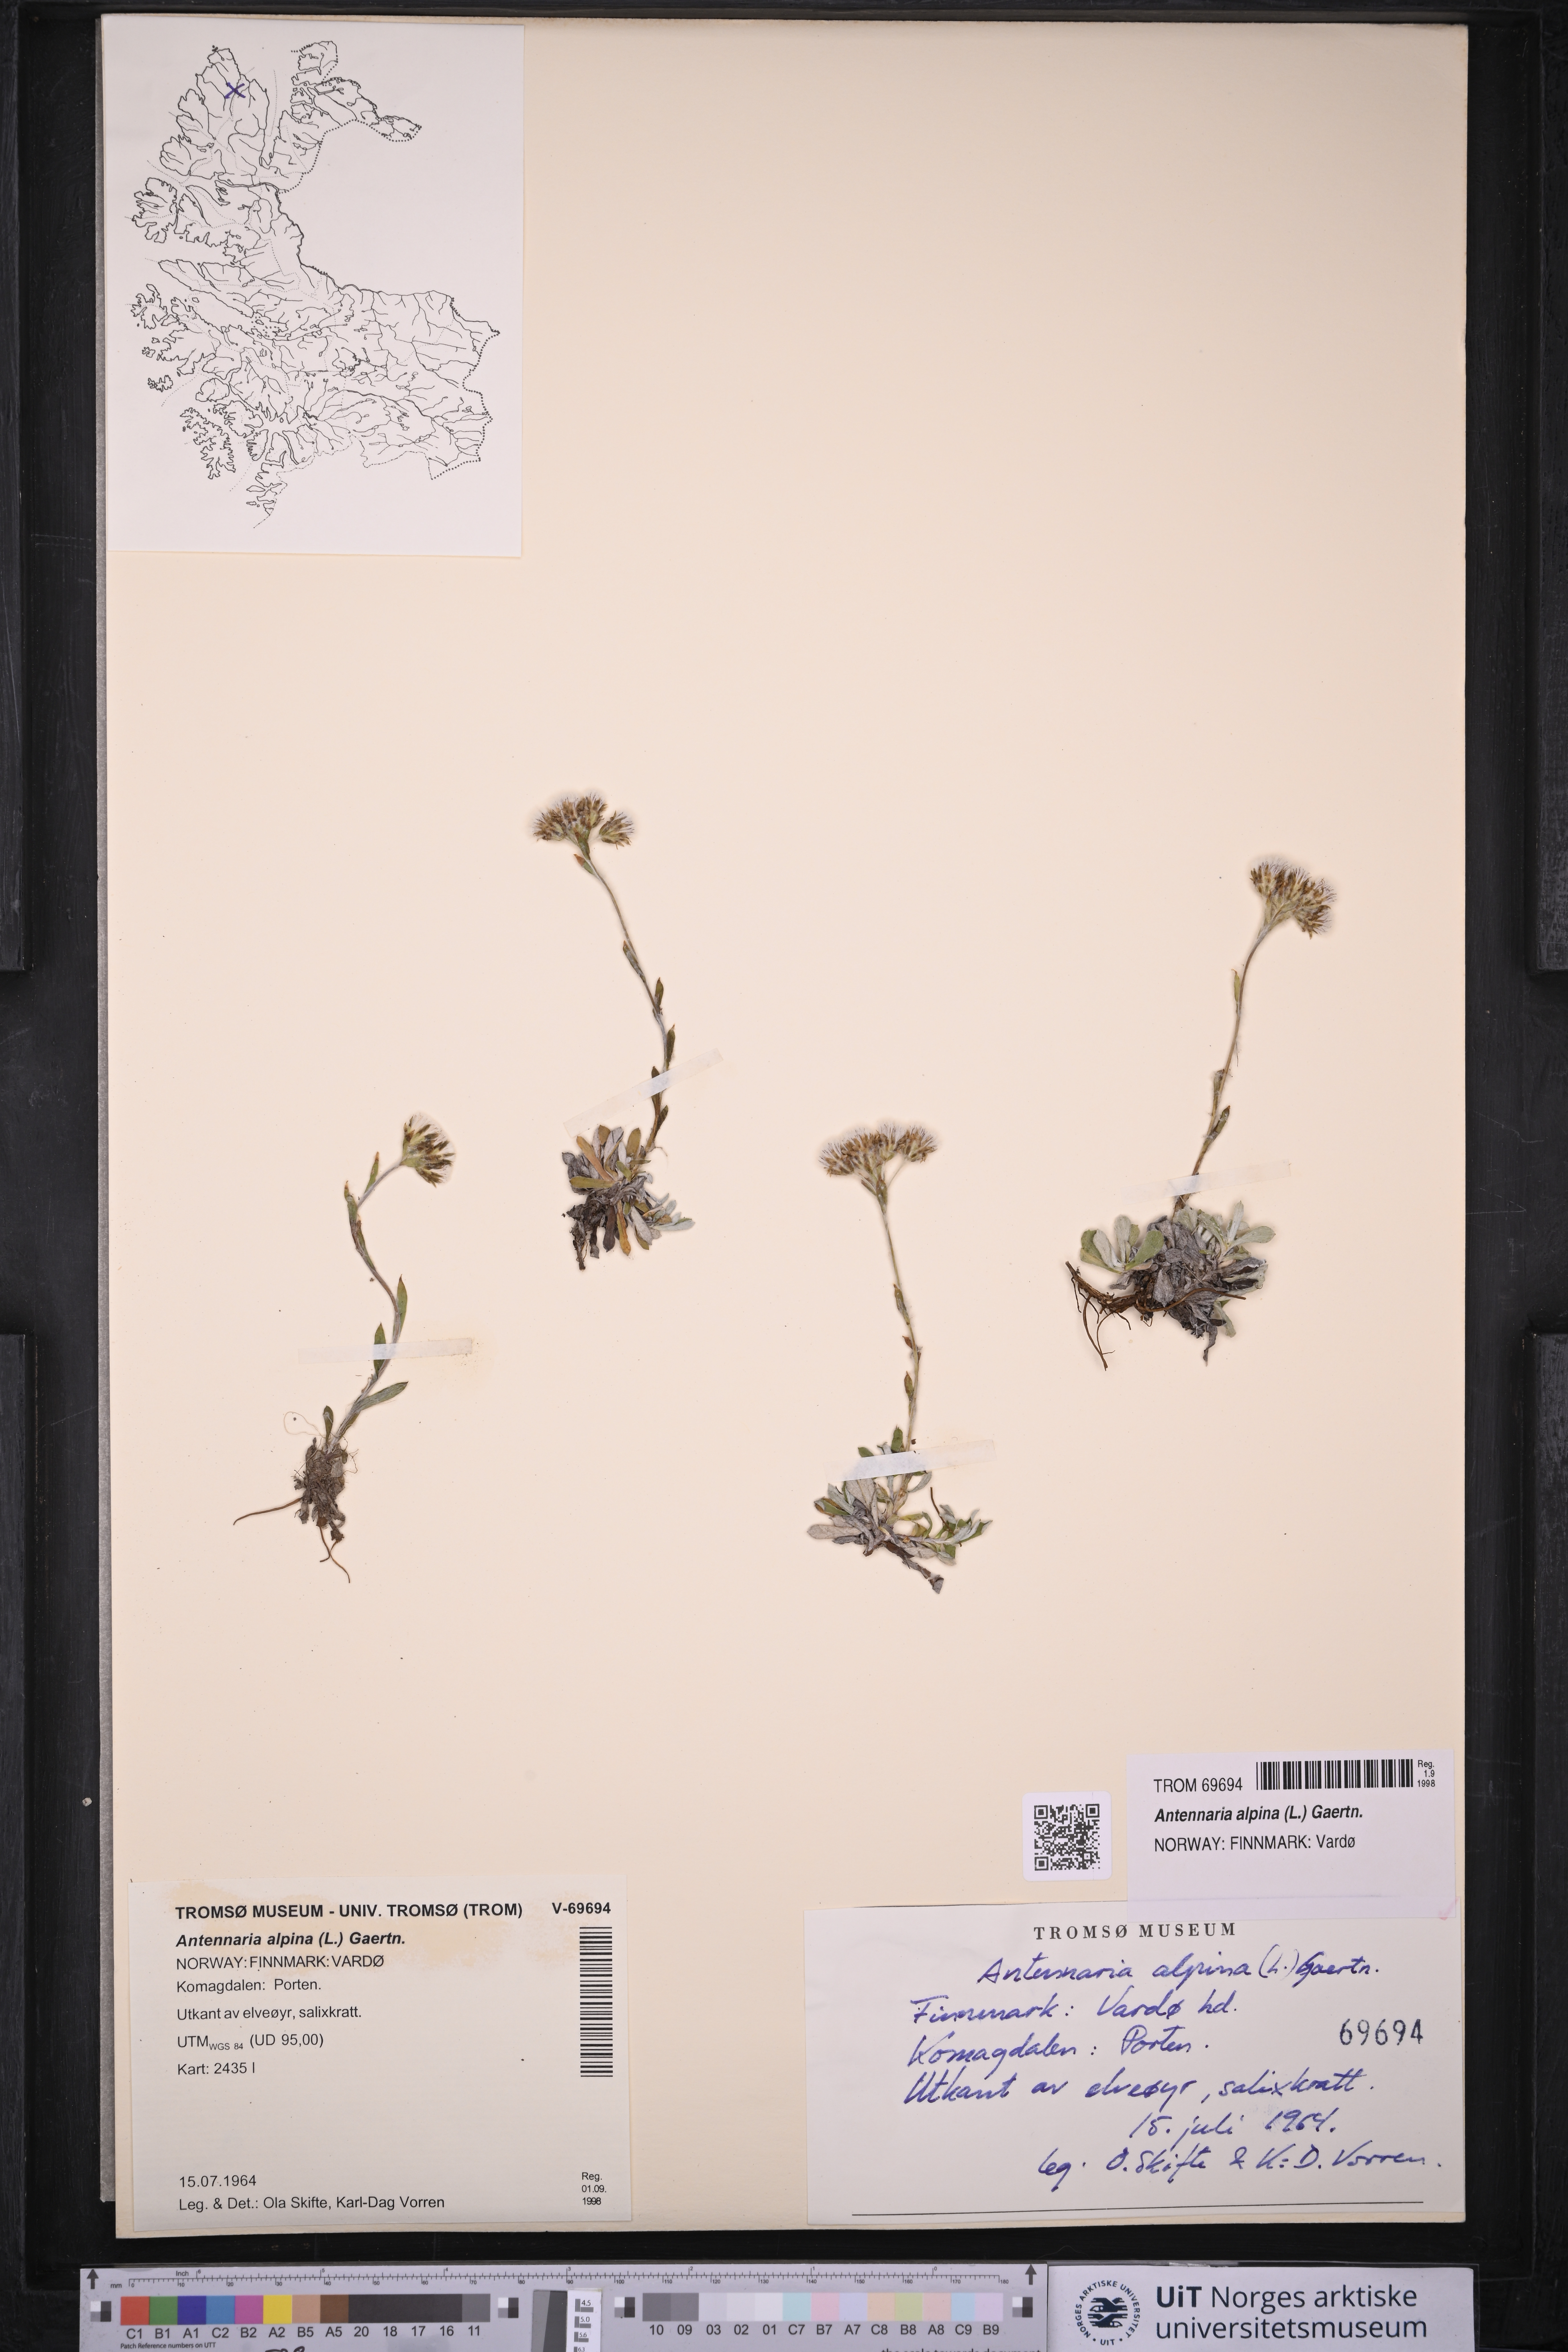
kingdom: Plantae
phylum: Tracheophyta
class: Magnoliopsida
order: Asterales
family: Asteraceae
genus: Antennaria
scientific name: Antennaria alpina
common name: Alpine pussytoes
